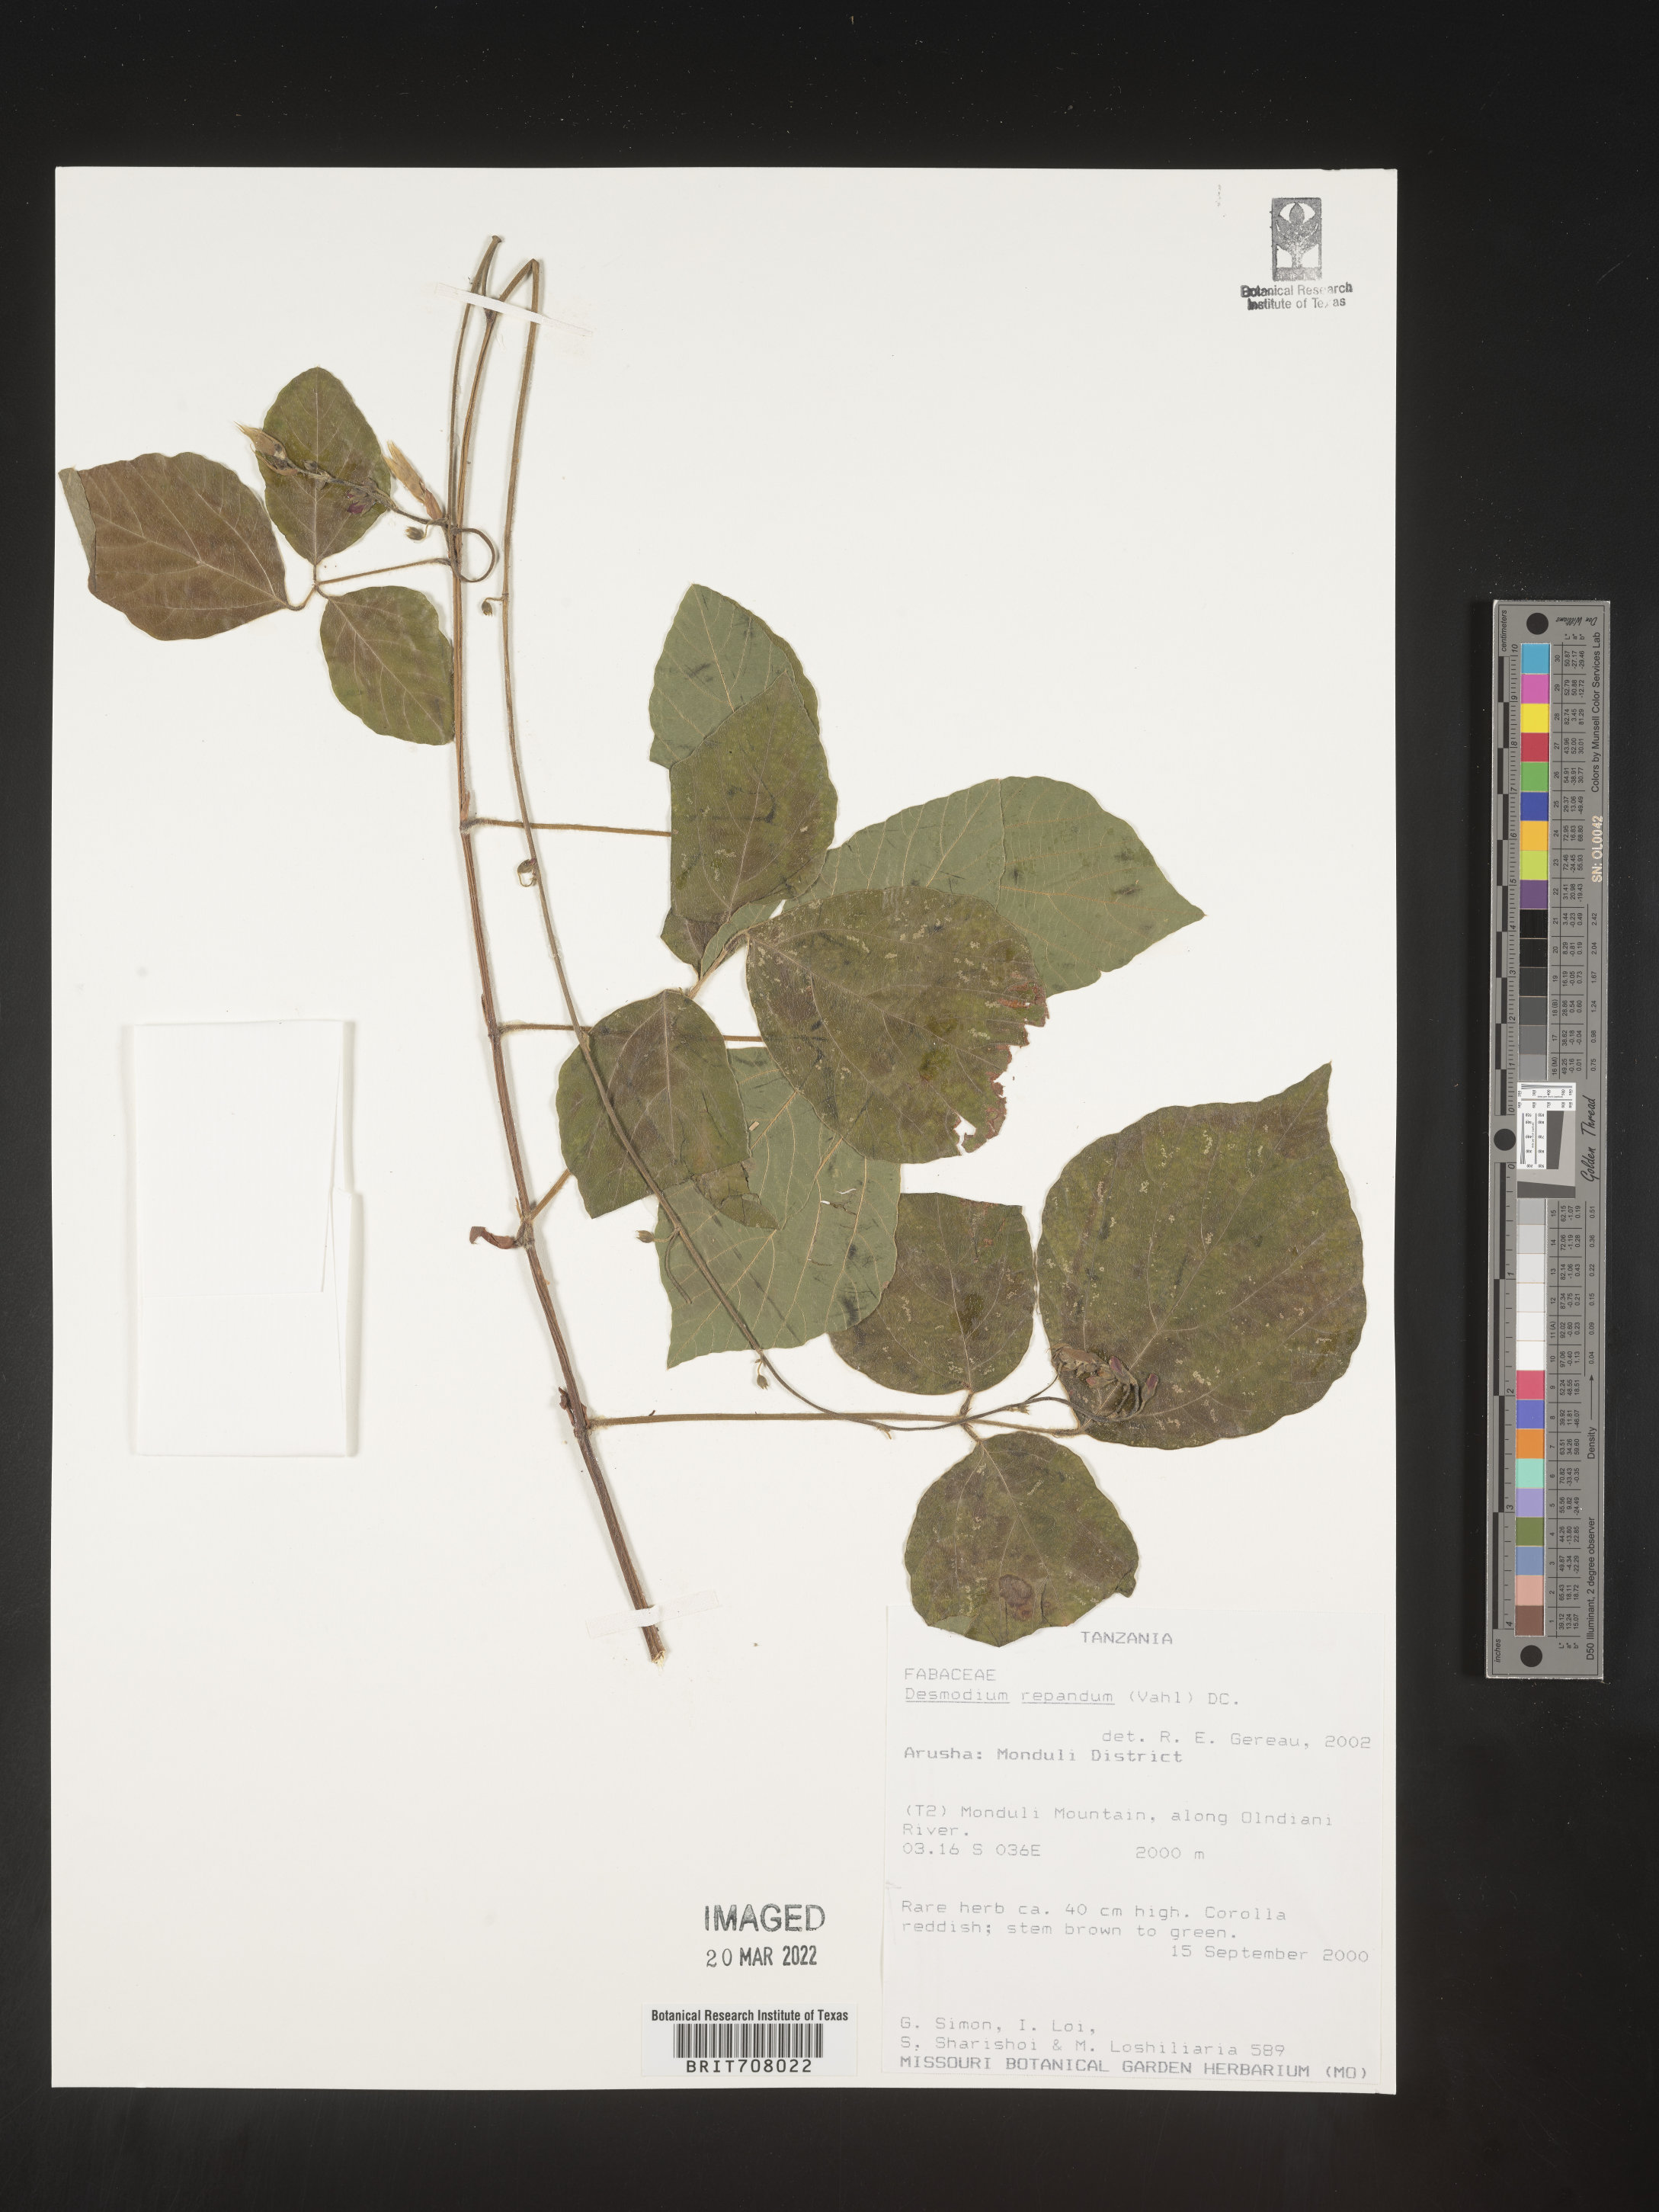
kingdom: Plantae
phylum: Tracheophyta
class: Magnoliopsida
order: Fabales
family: Fabaceae
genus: Desmodium
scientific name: Desmodium
